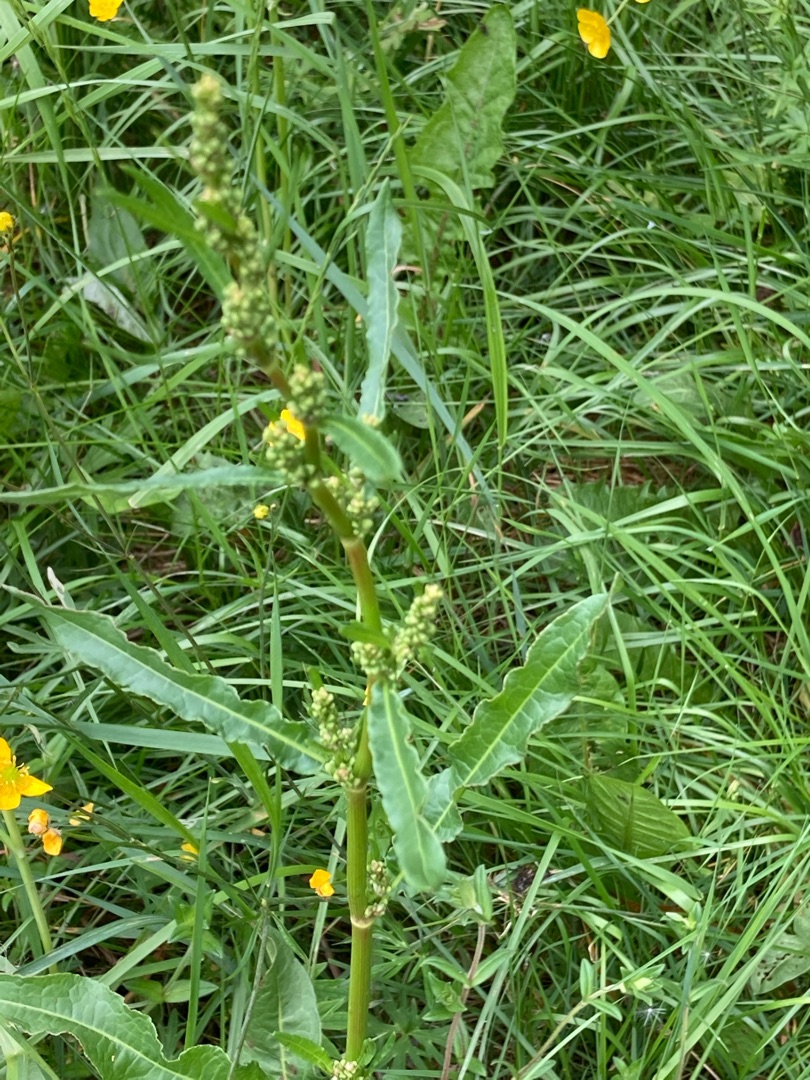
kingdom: Plantae
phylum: Tracheophyta
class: Magnoliopsida
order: Caryophyllales
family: Polygonaceae
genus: Rumex
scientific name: Rumex crispus
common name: Kruset skræppe
